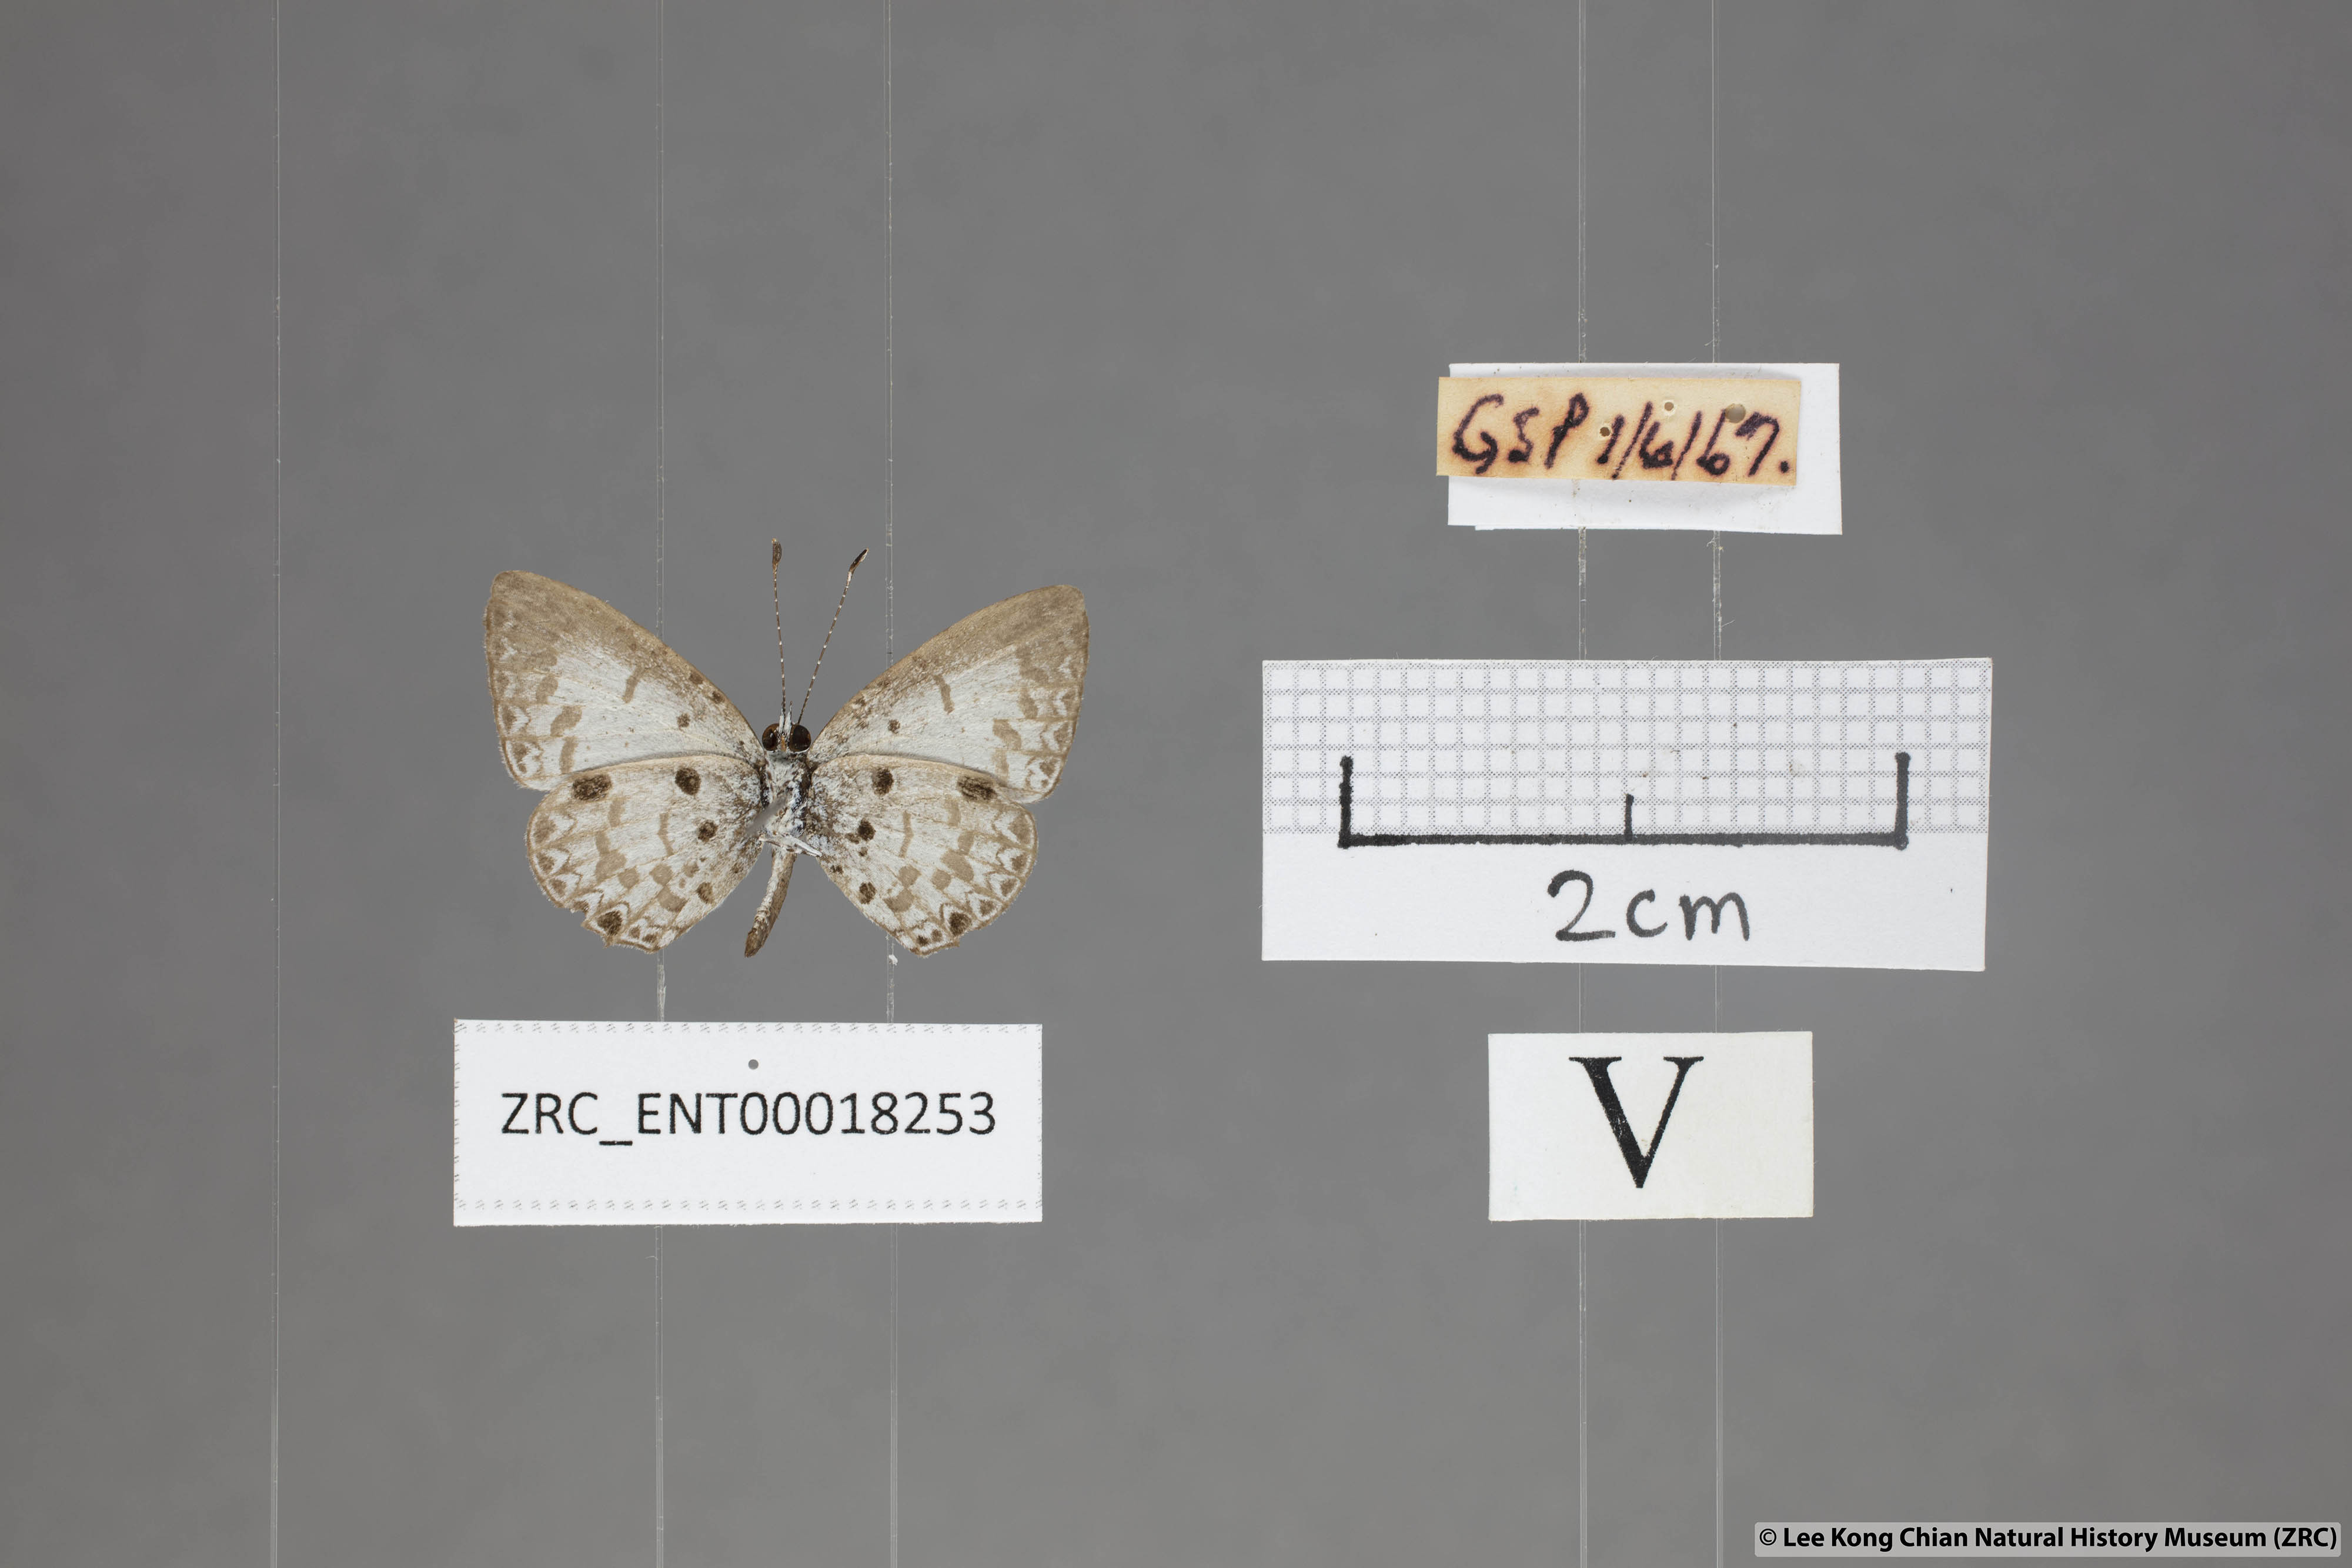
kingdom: Animalia
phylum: Arthropoda
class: Insecta
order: Lepidoptera
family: Lycaenidae
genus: Megisba
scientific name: Megisba malaya
